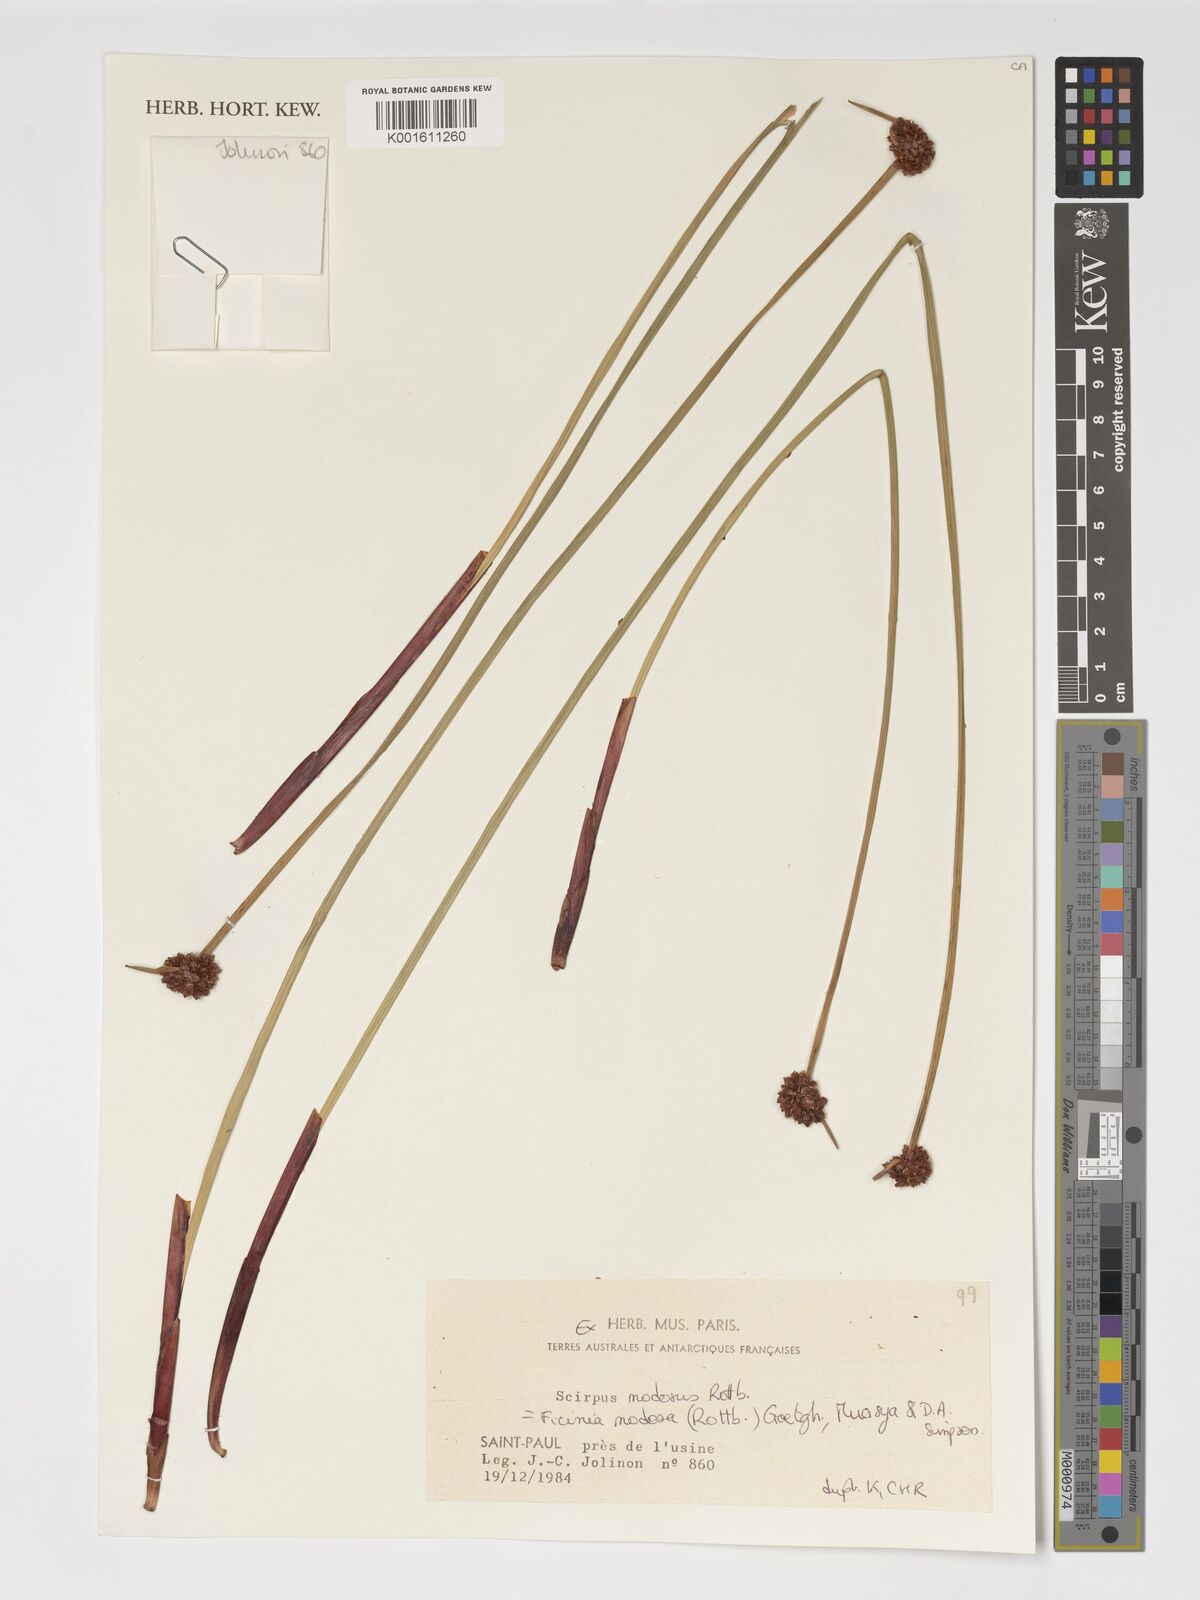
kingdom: Plantae
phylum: Tracheophyta
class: Liliopsida
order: Poales
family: Cyperaceae
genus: Ficinia
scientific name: Ficinia nodosa
